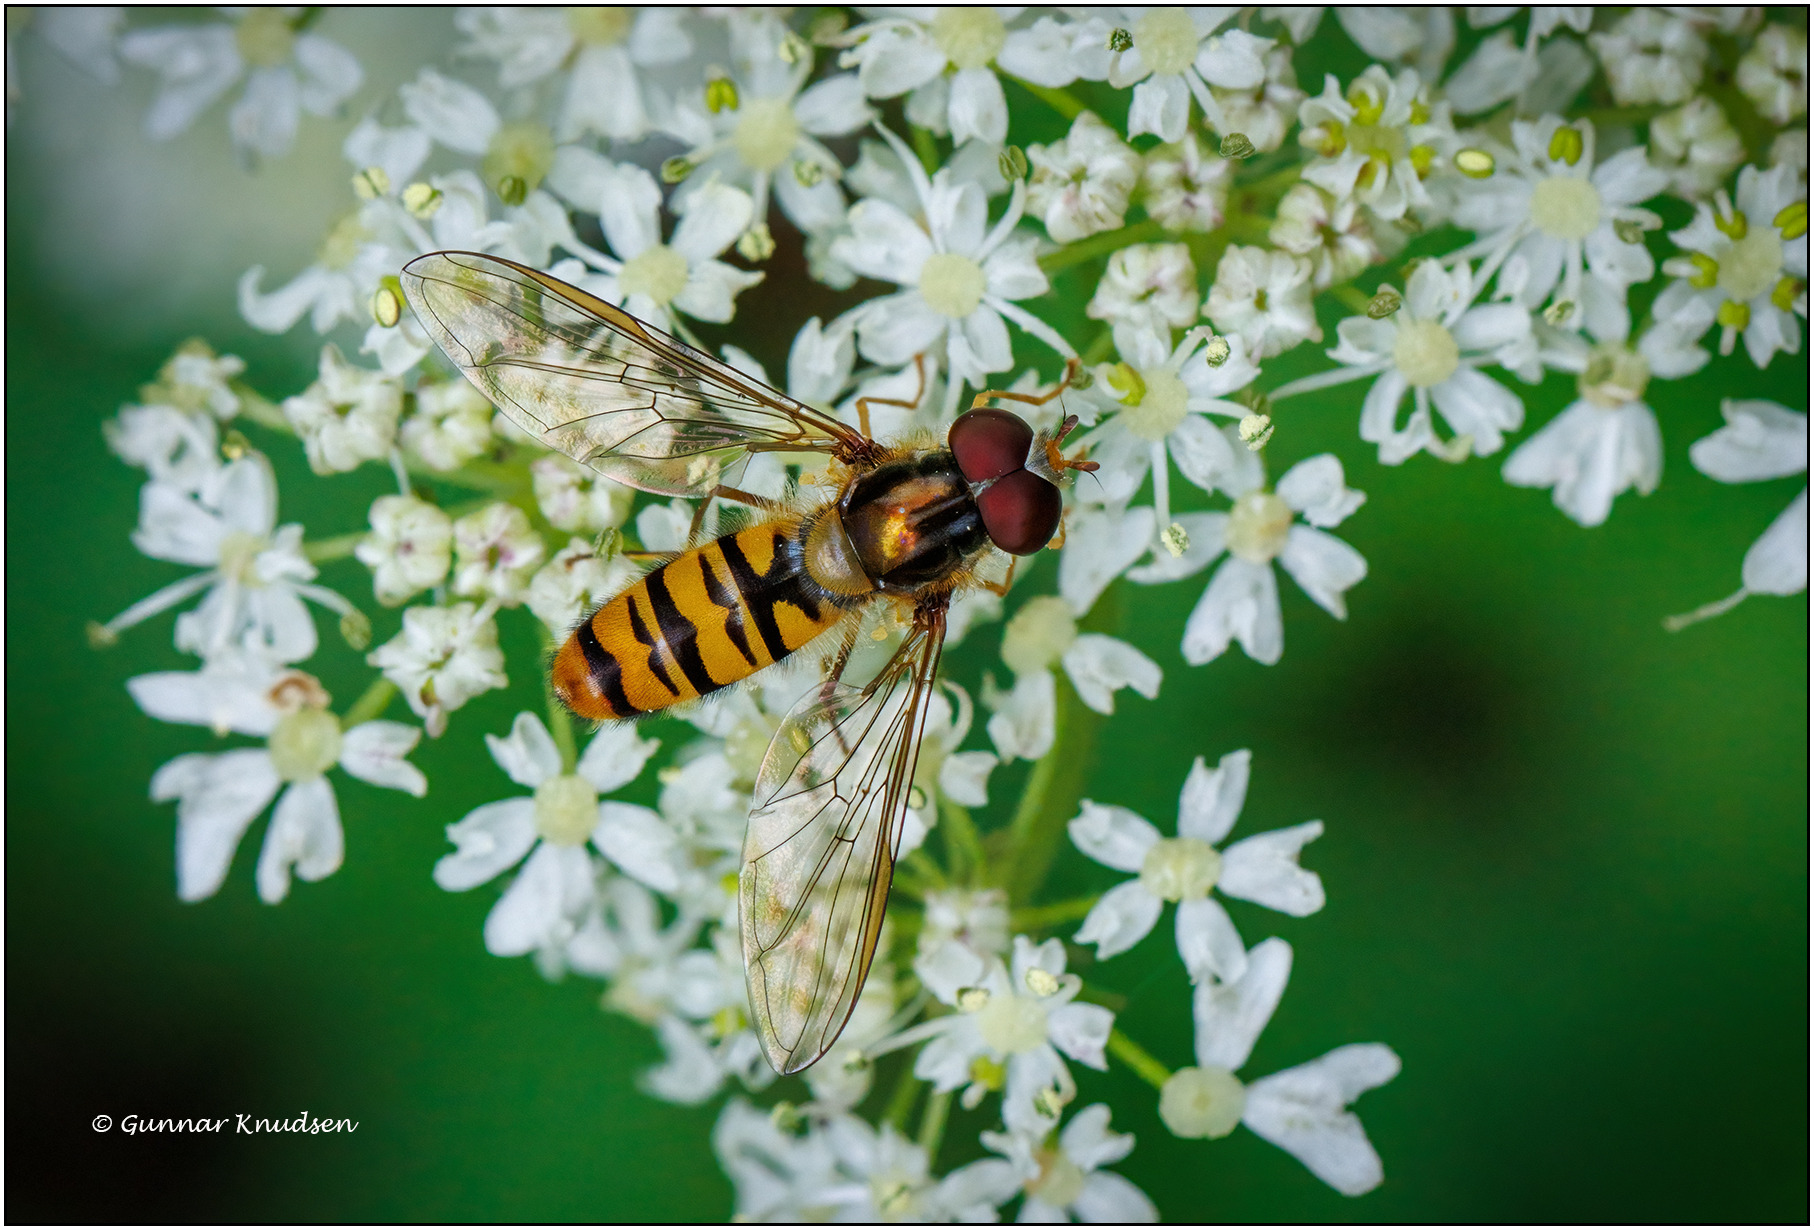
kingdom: Animalia
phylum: Arthropoda
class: Insecta
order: Diptera
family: Syrphidae
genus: Episyrphus
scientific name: Episyrphus balteatus
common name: Dobbeltbåndet svirreflue
